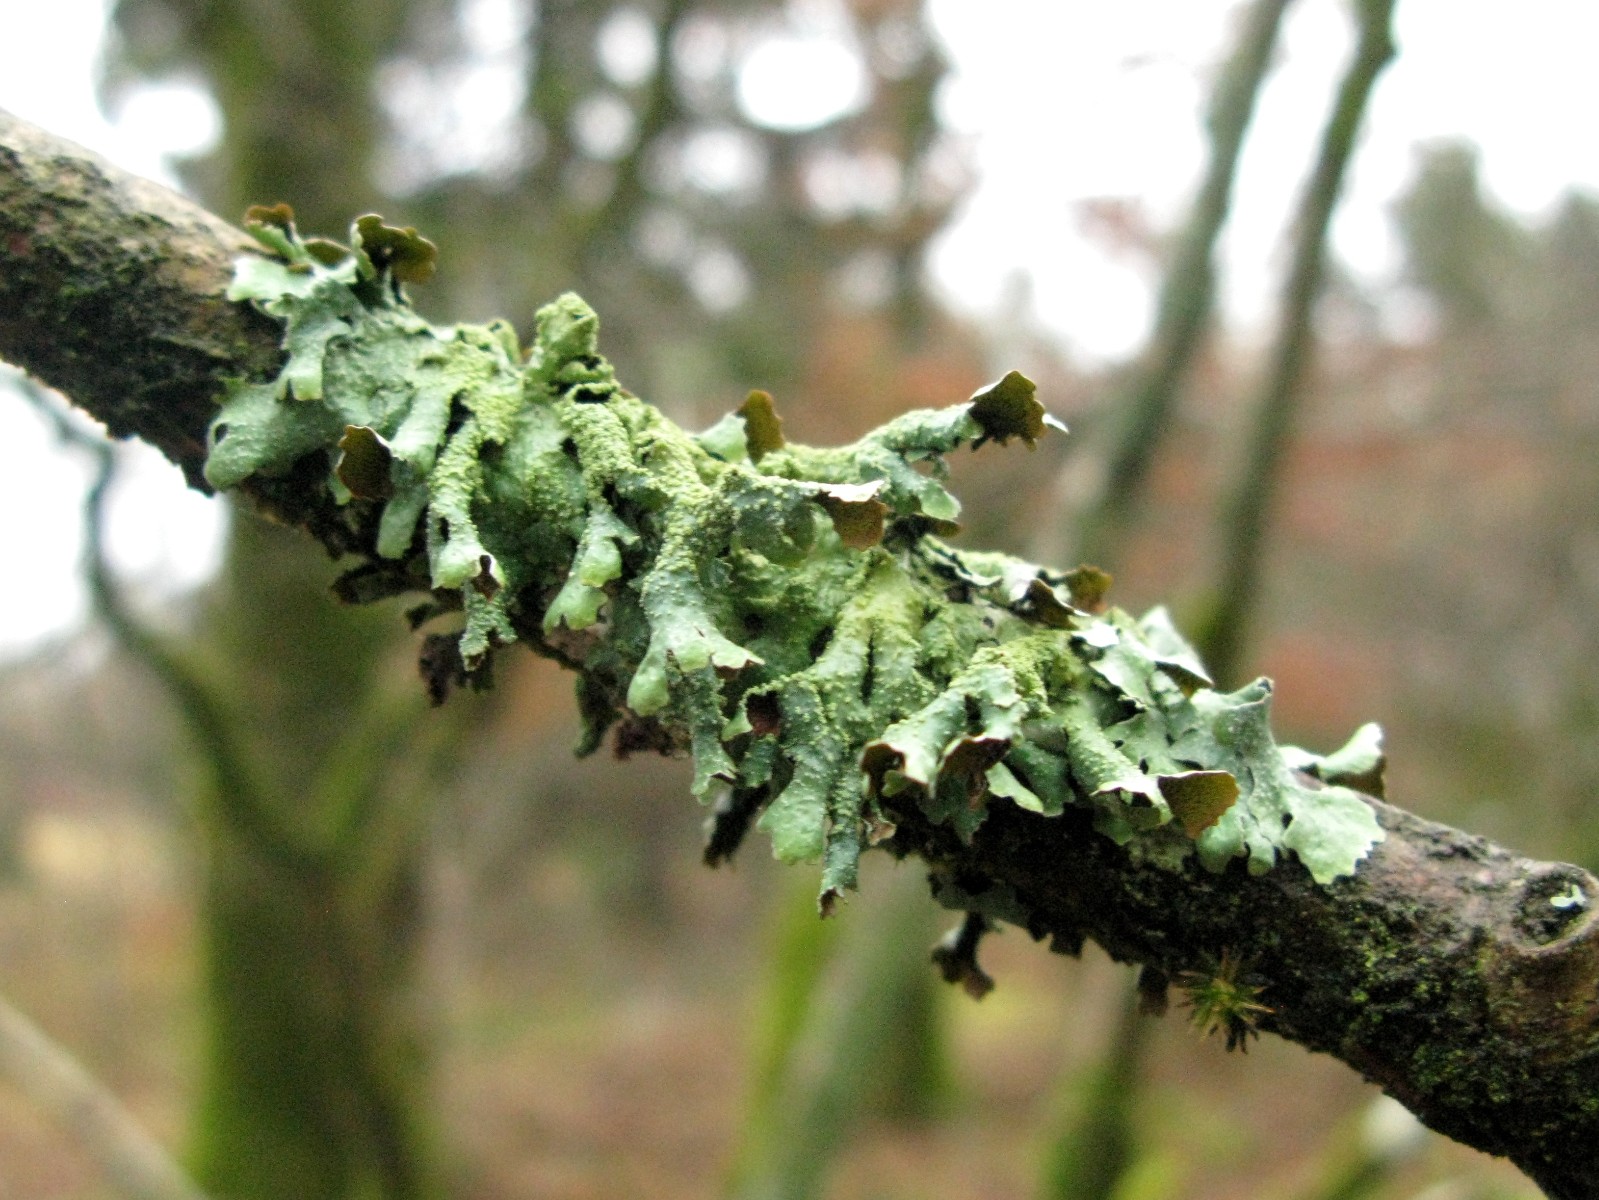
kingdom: Fungi
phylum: Ascomycota
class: Lecanoromycetes
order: Lecanorales
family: Parmeliaceae
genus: Parmelia
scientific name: Parmelia submontana
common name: langlobet skållav
